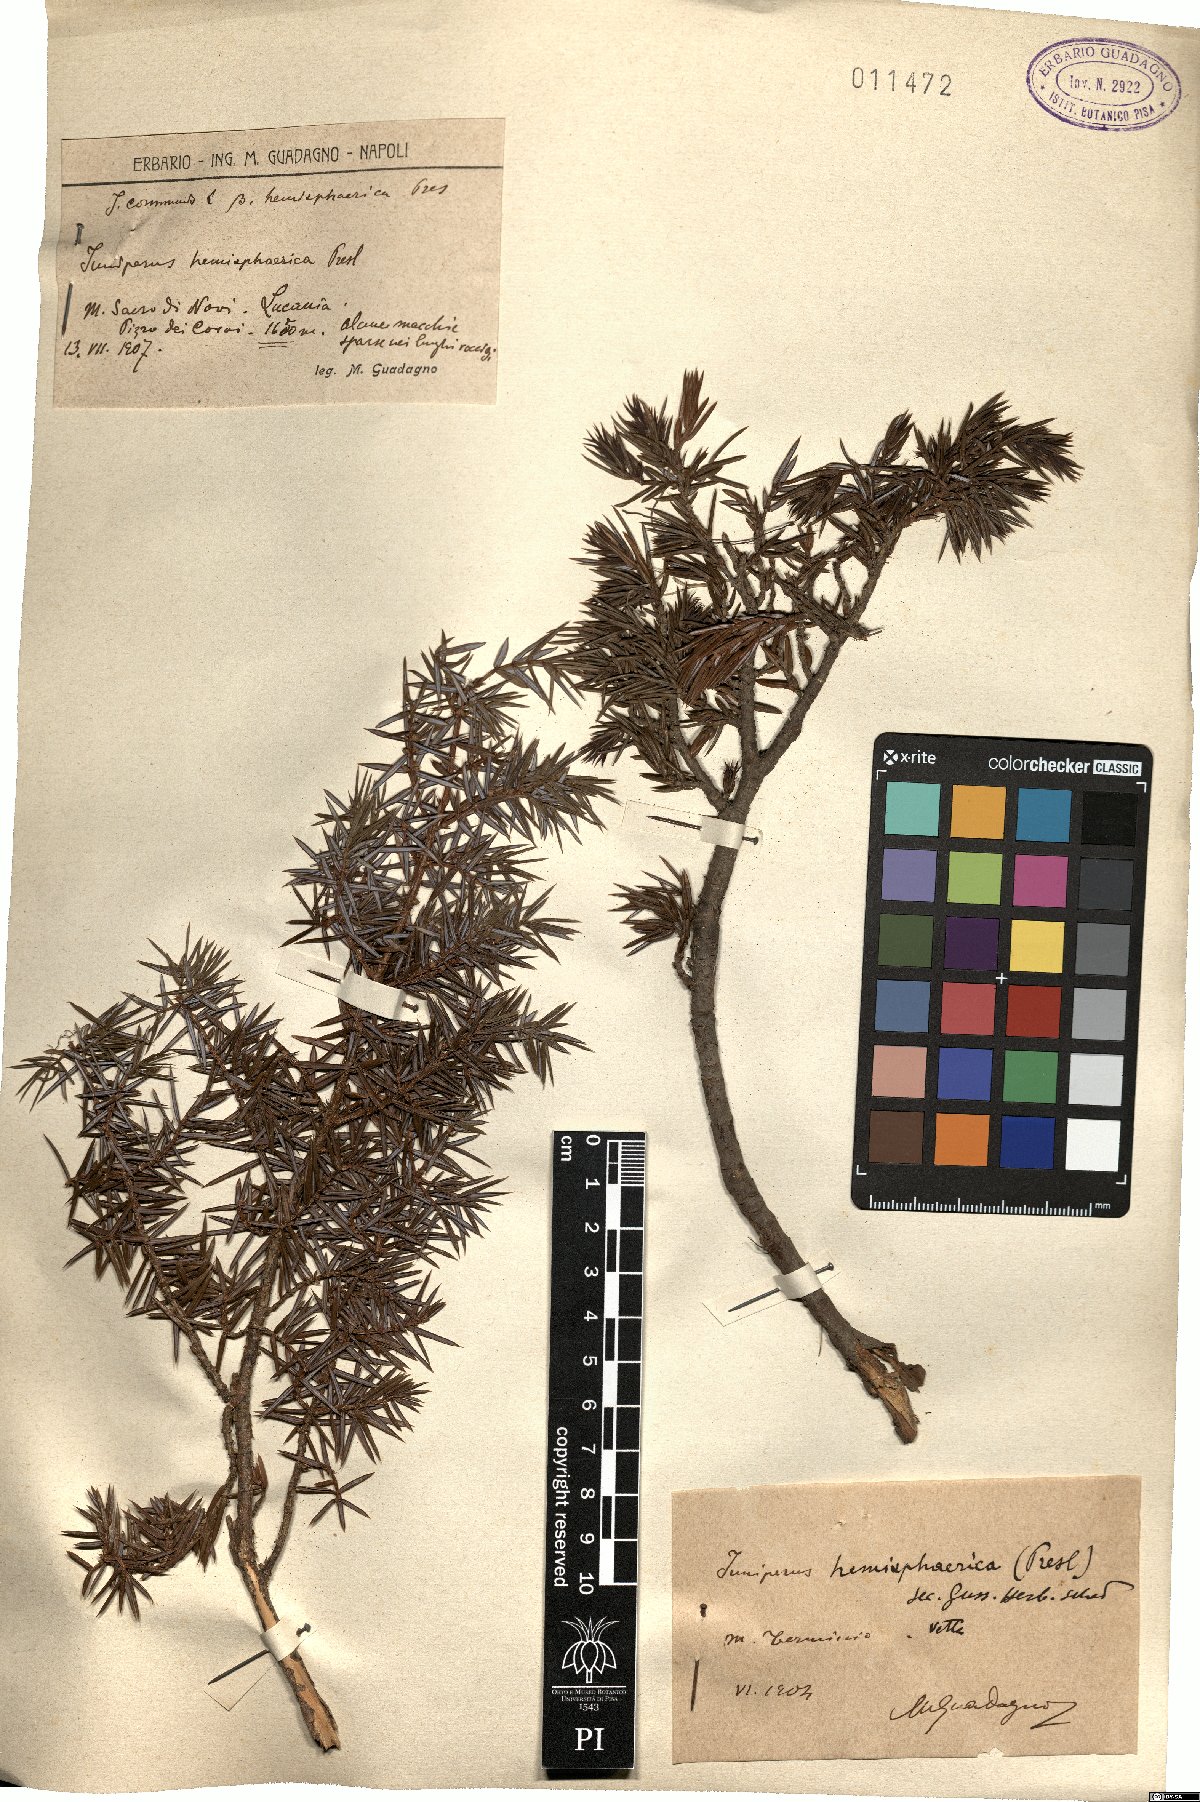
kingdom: Plantae
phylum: Tracheophyta
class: Pinopsida
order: Pinales
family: Cupressaceae
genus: Juniperus
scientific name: Juniperus communis
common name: Common juniper
